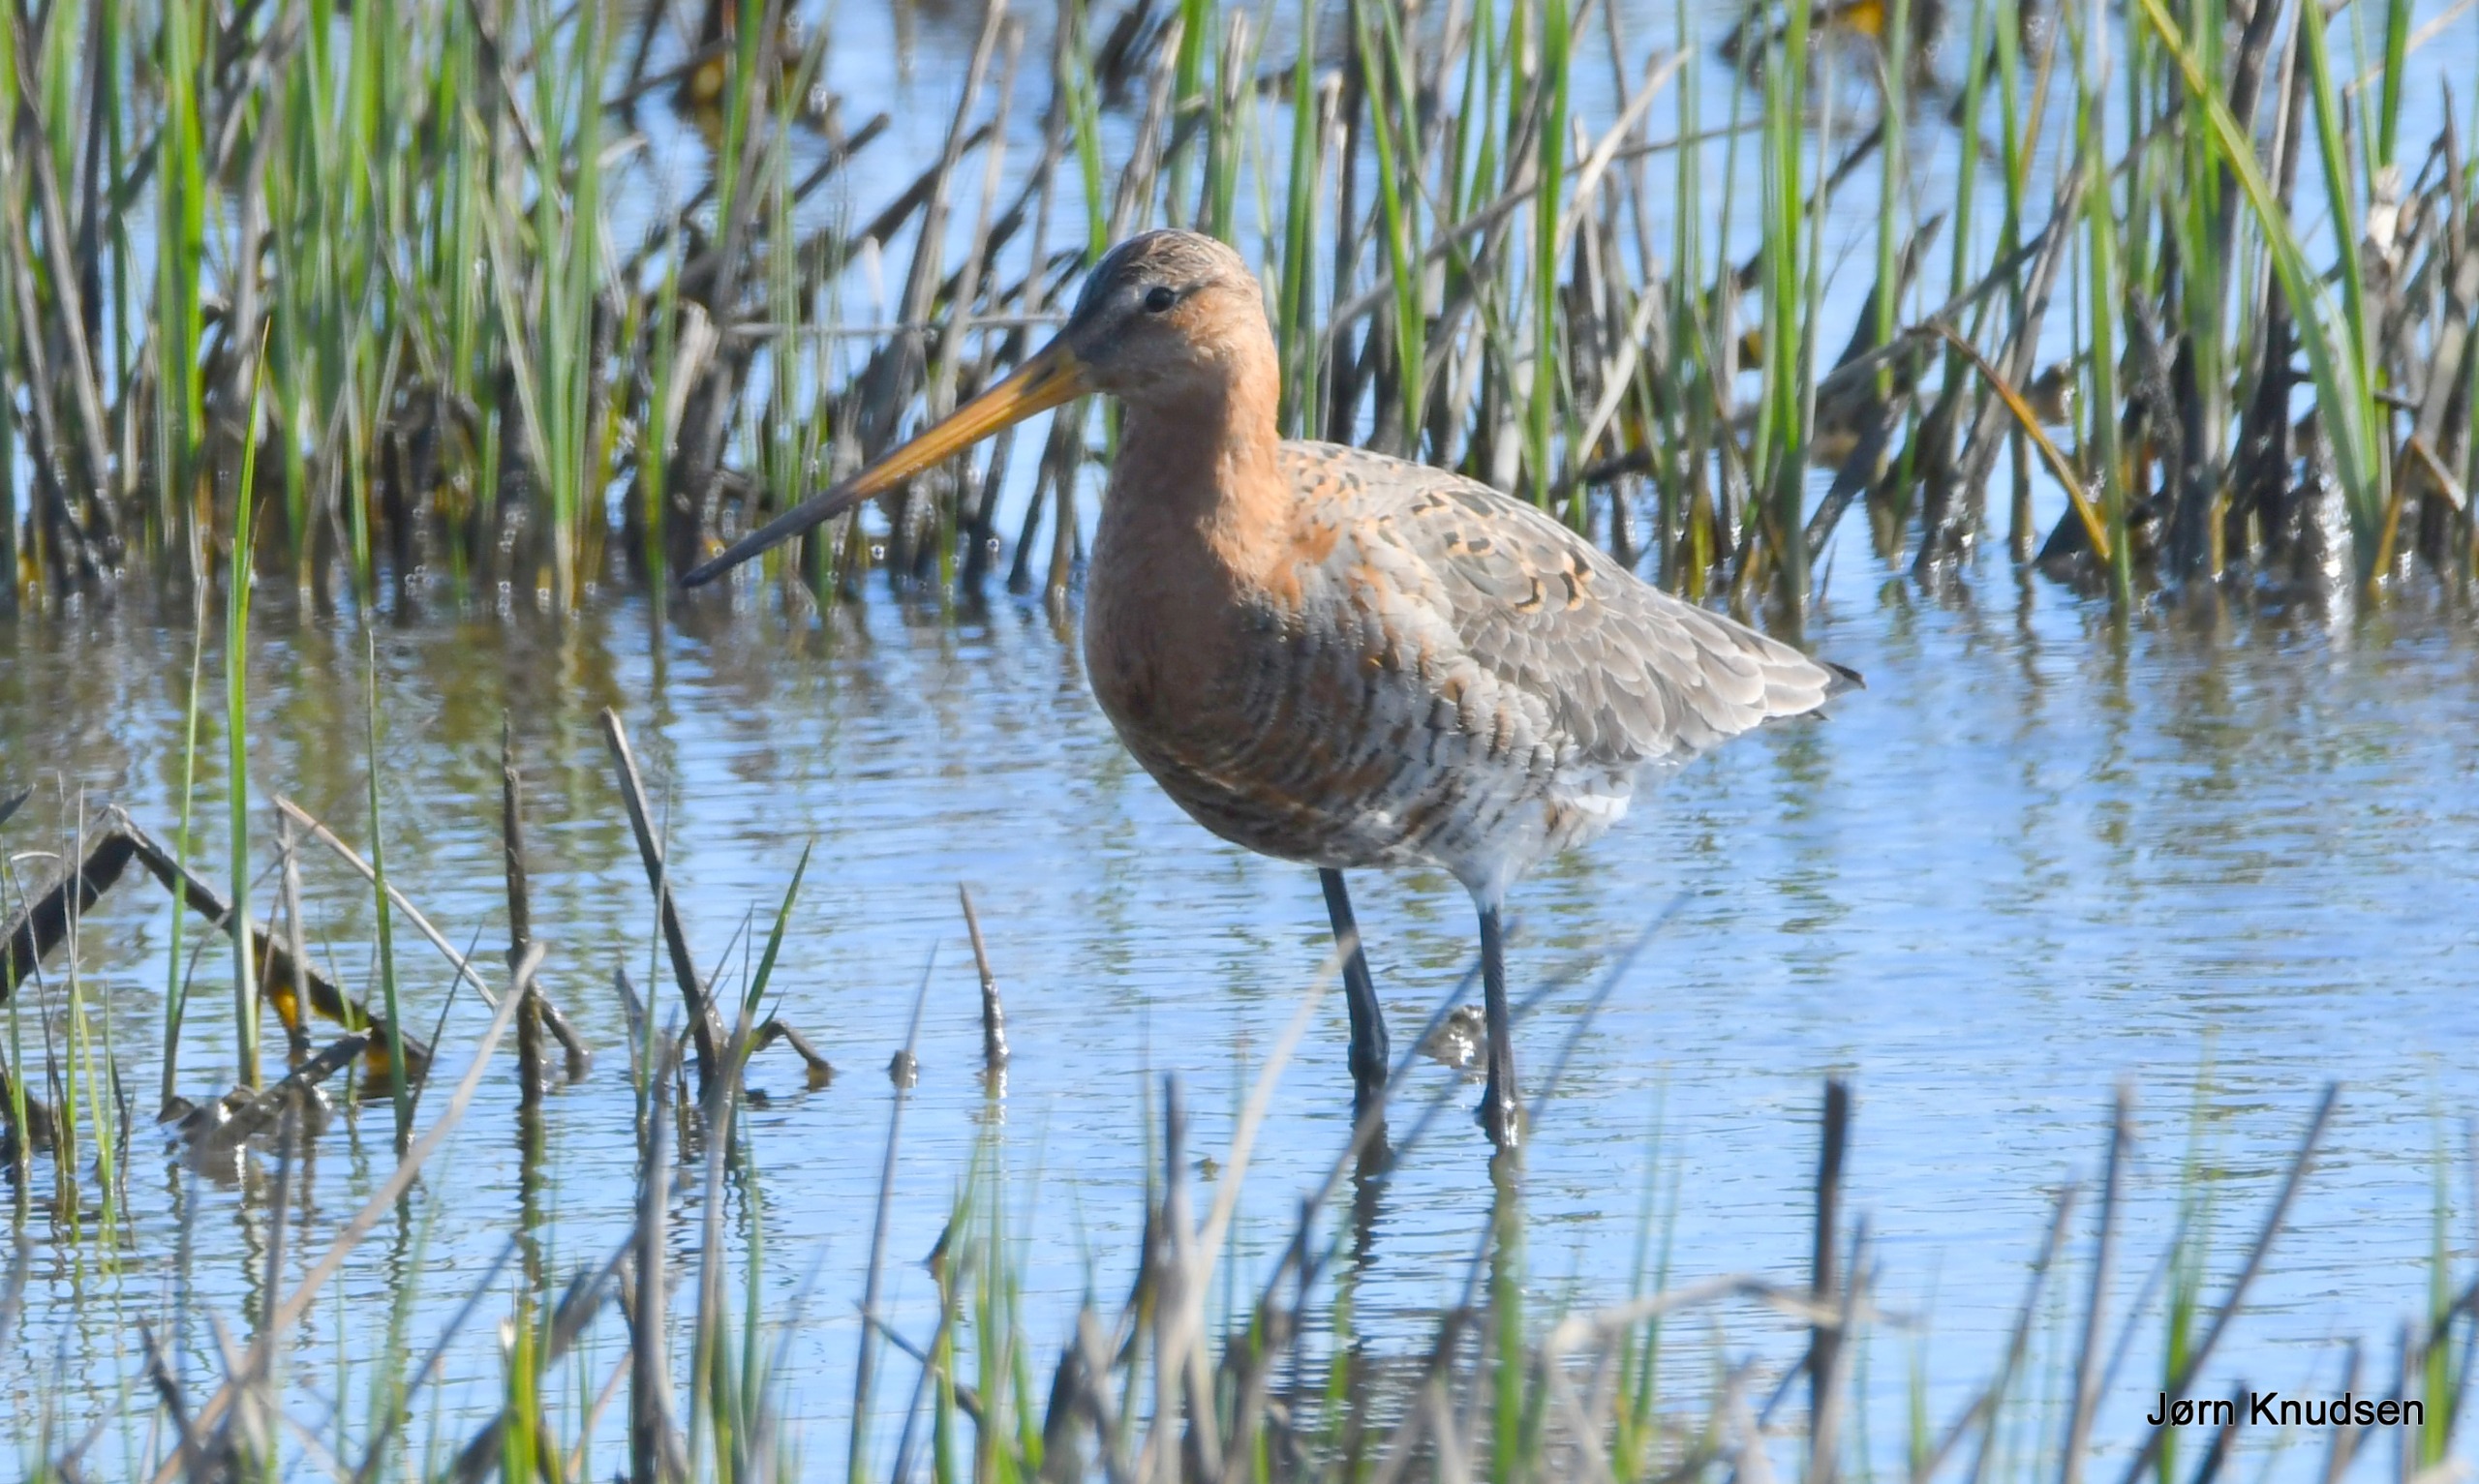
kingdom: Animalia
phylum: Chordata
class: Aves
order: Charadriiformes
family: Scolopacidae
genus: Limosa
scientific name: Limosa limosa
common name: Stor kobbersneppe
